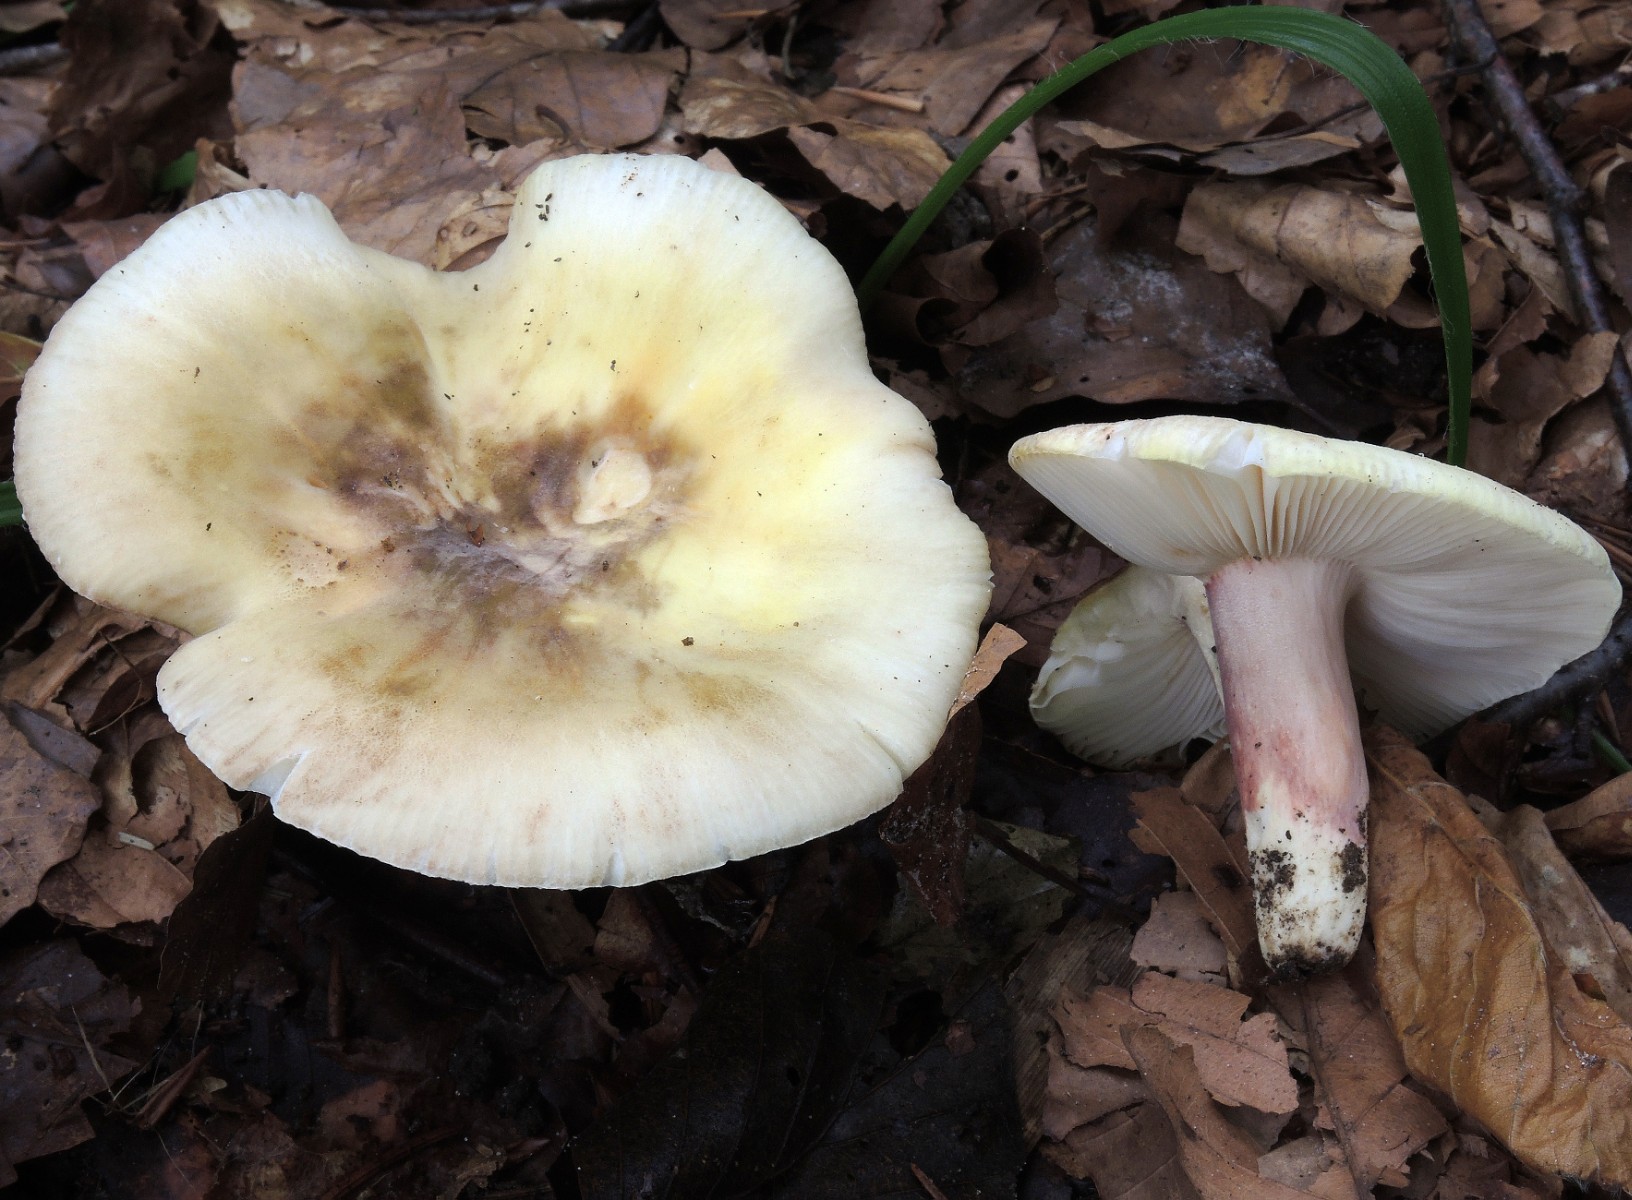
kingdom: Fungi
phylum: Basidiomycota
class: Agaricomycetes
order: Russulales
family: Russulaceae
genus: Russula
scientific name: Russula violeipes
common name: ferskengul skørhat
